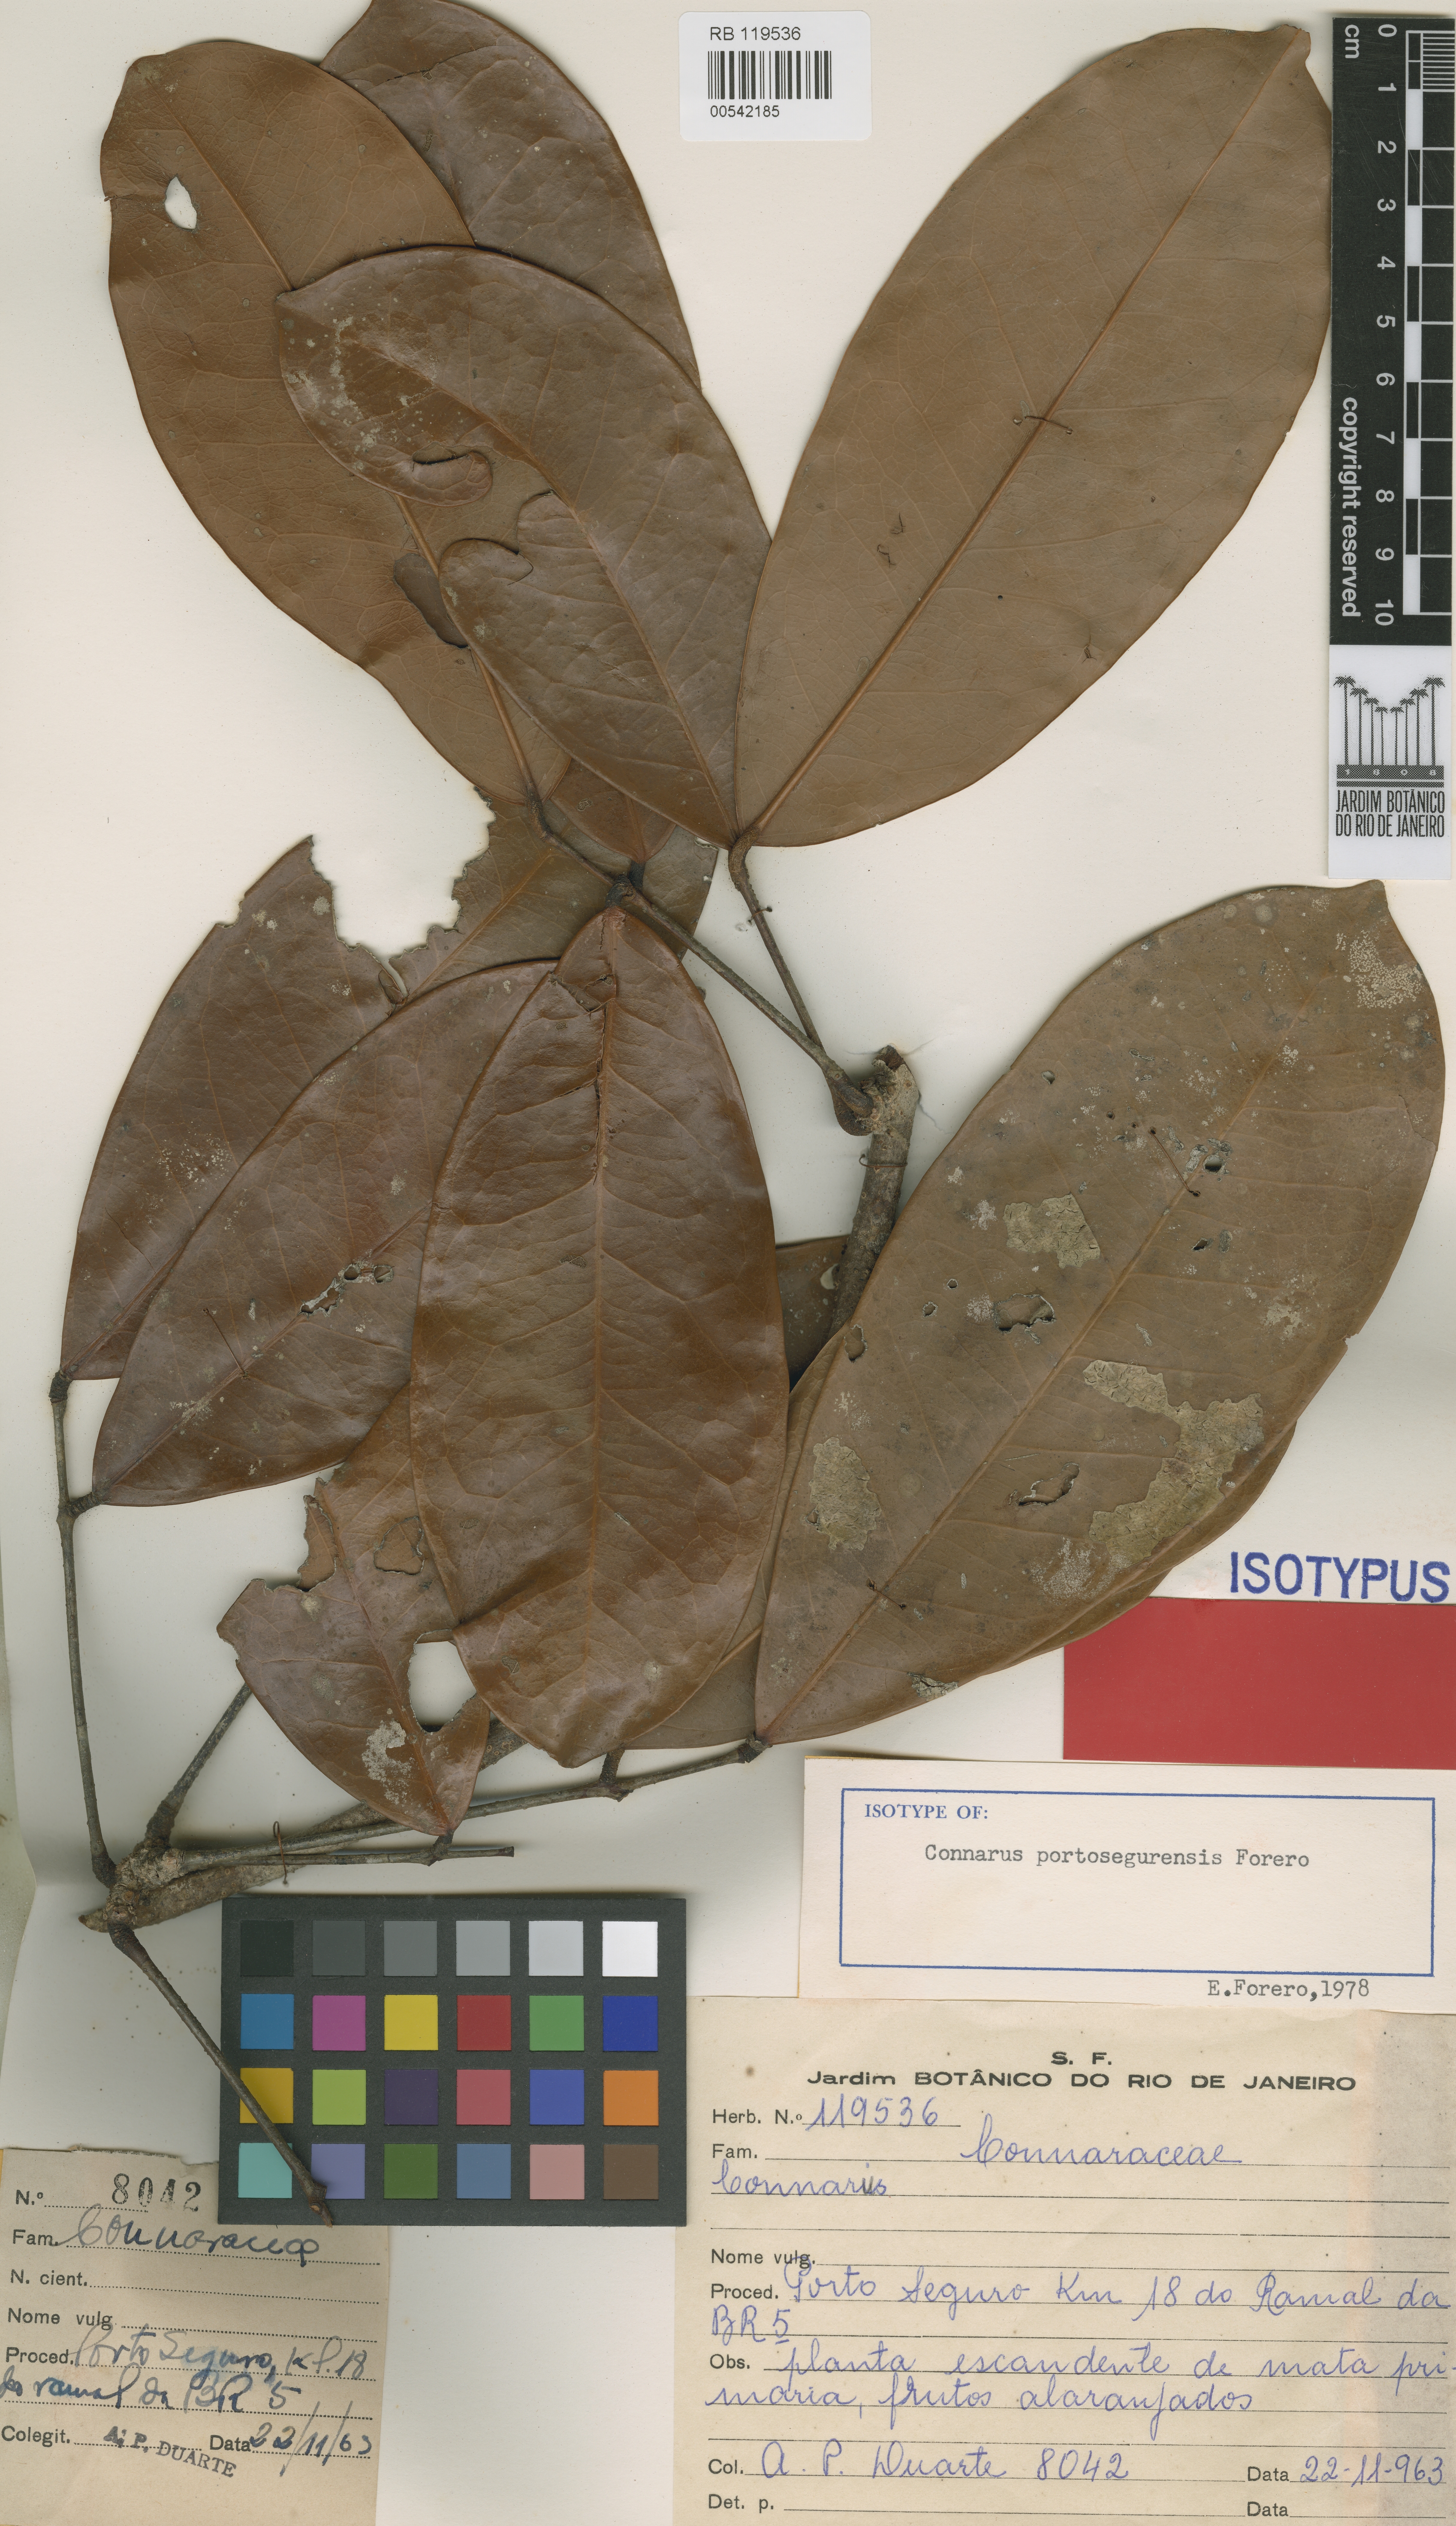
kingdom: Plantae
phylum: Tracheophyta
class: Magnoliopsida
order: Oxalidales
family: Connaraceae
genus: Connarus
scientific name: Connarus portosegurensis
